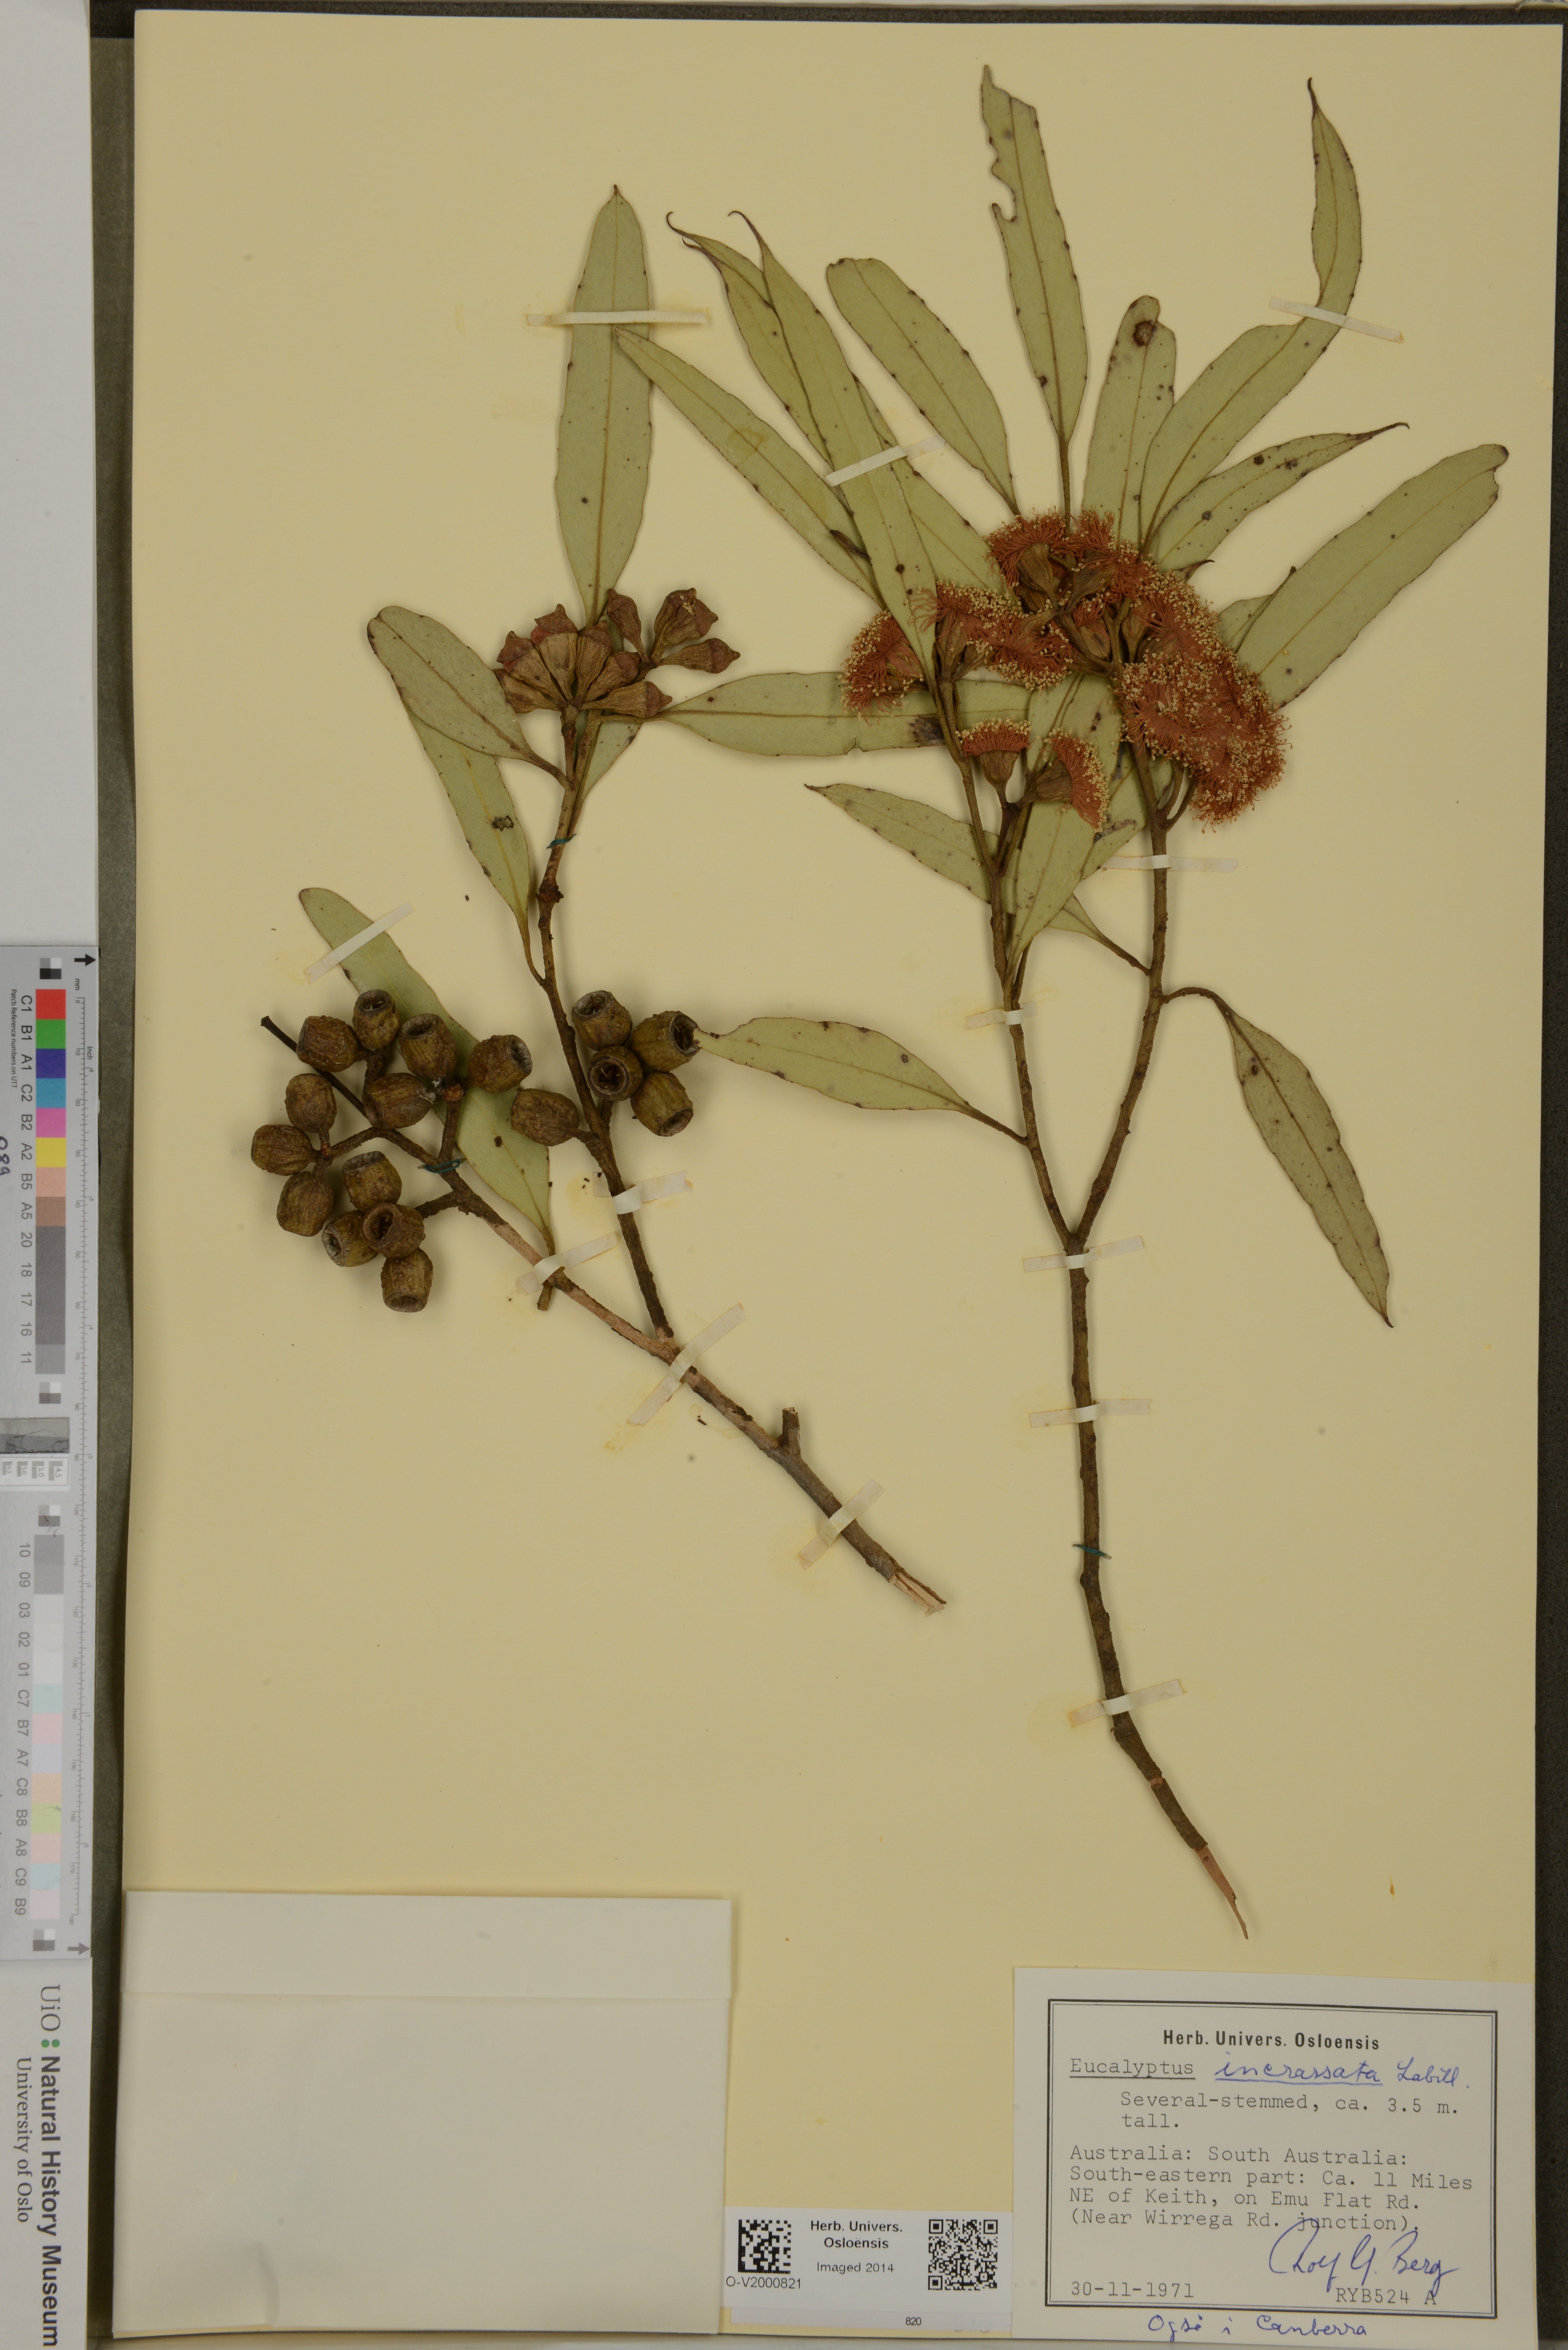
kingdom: Plantae
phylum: Tracheophyta
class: Magnoliopsida
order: Myrtales
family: Myrtaceae
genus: Eucalyptus
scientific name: Eucalyptus incrassata
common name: Ridge-fruit mallee
